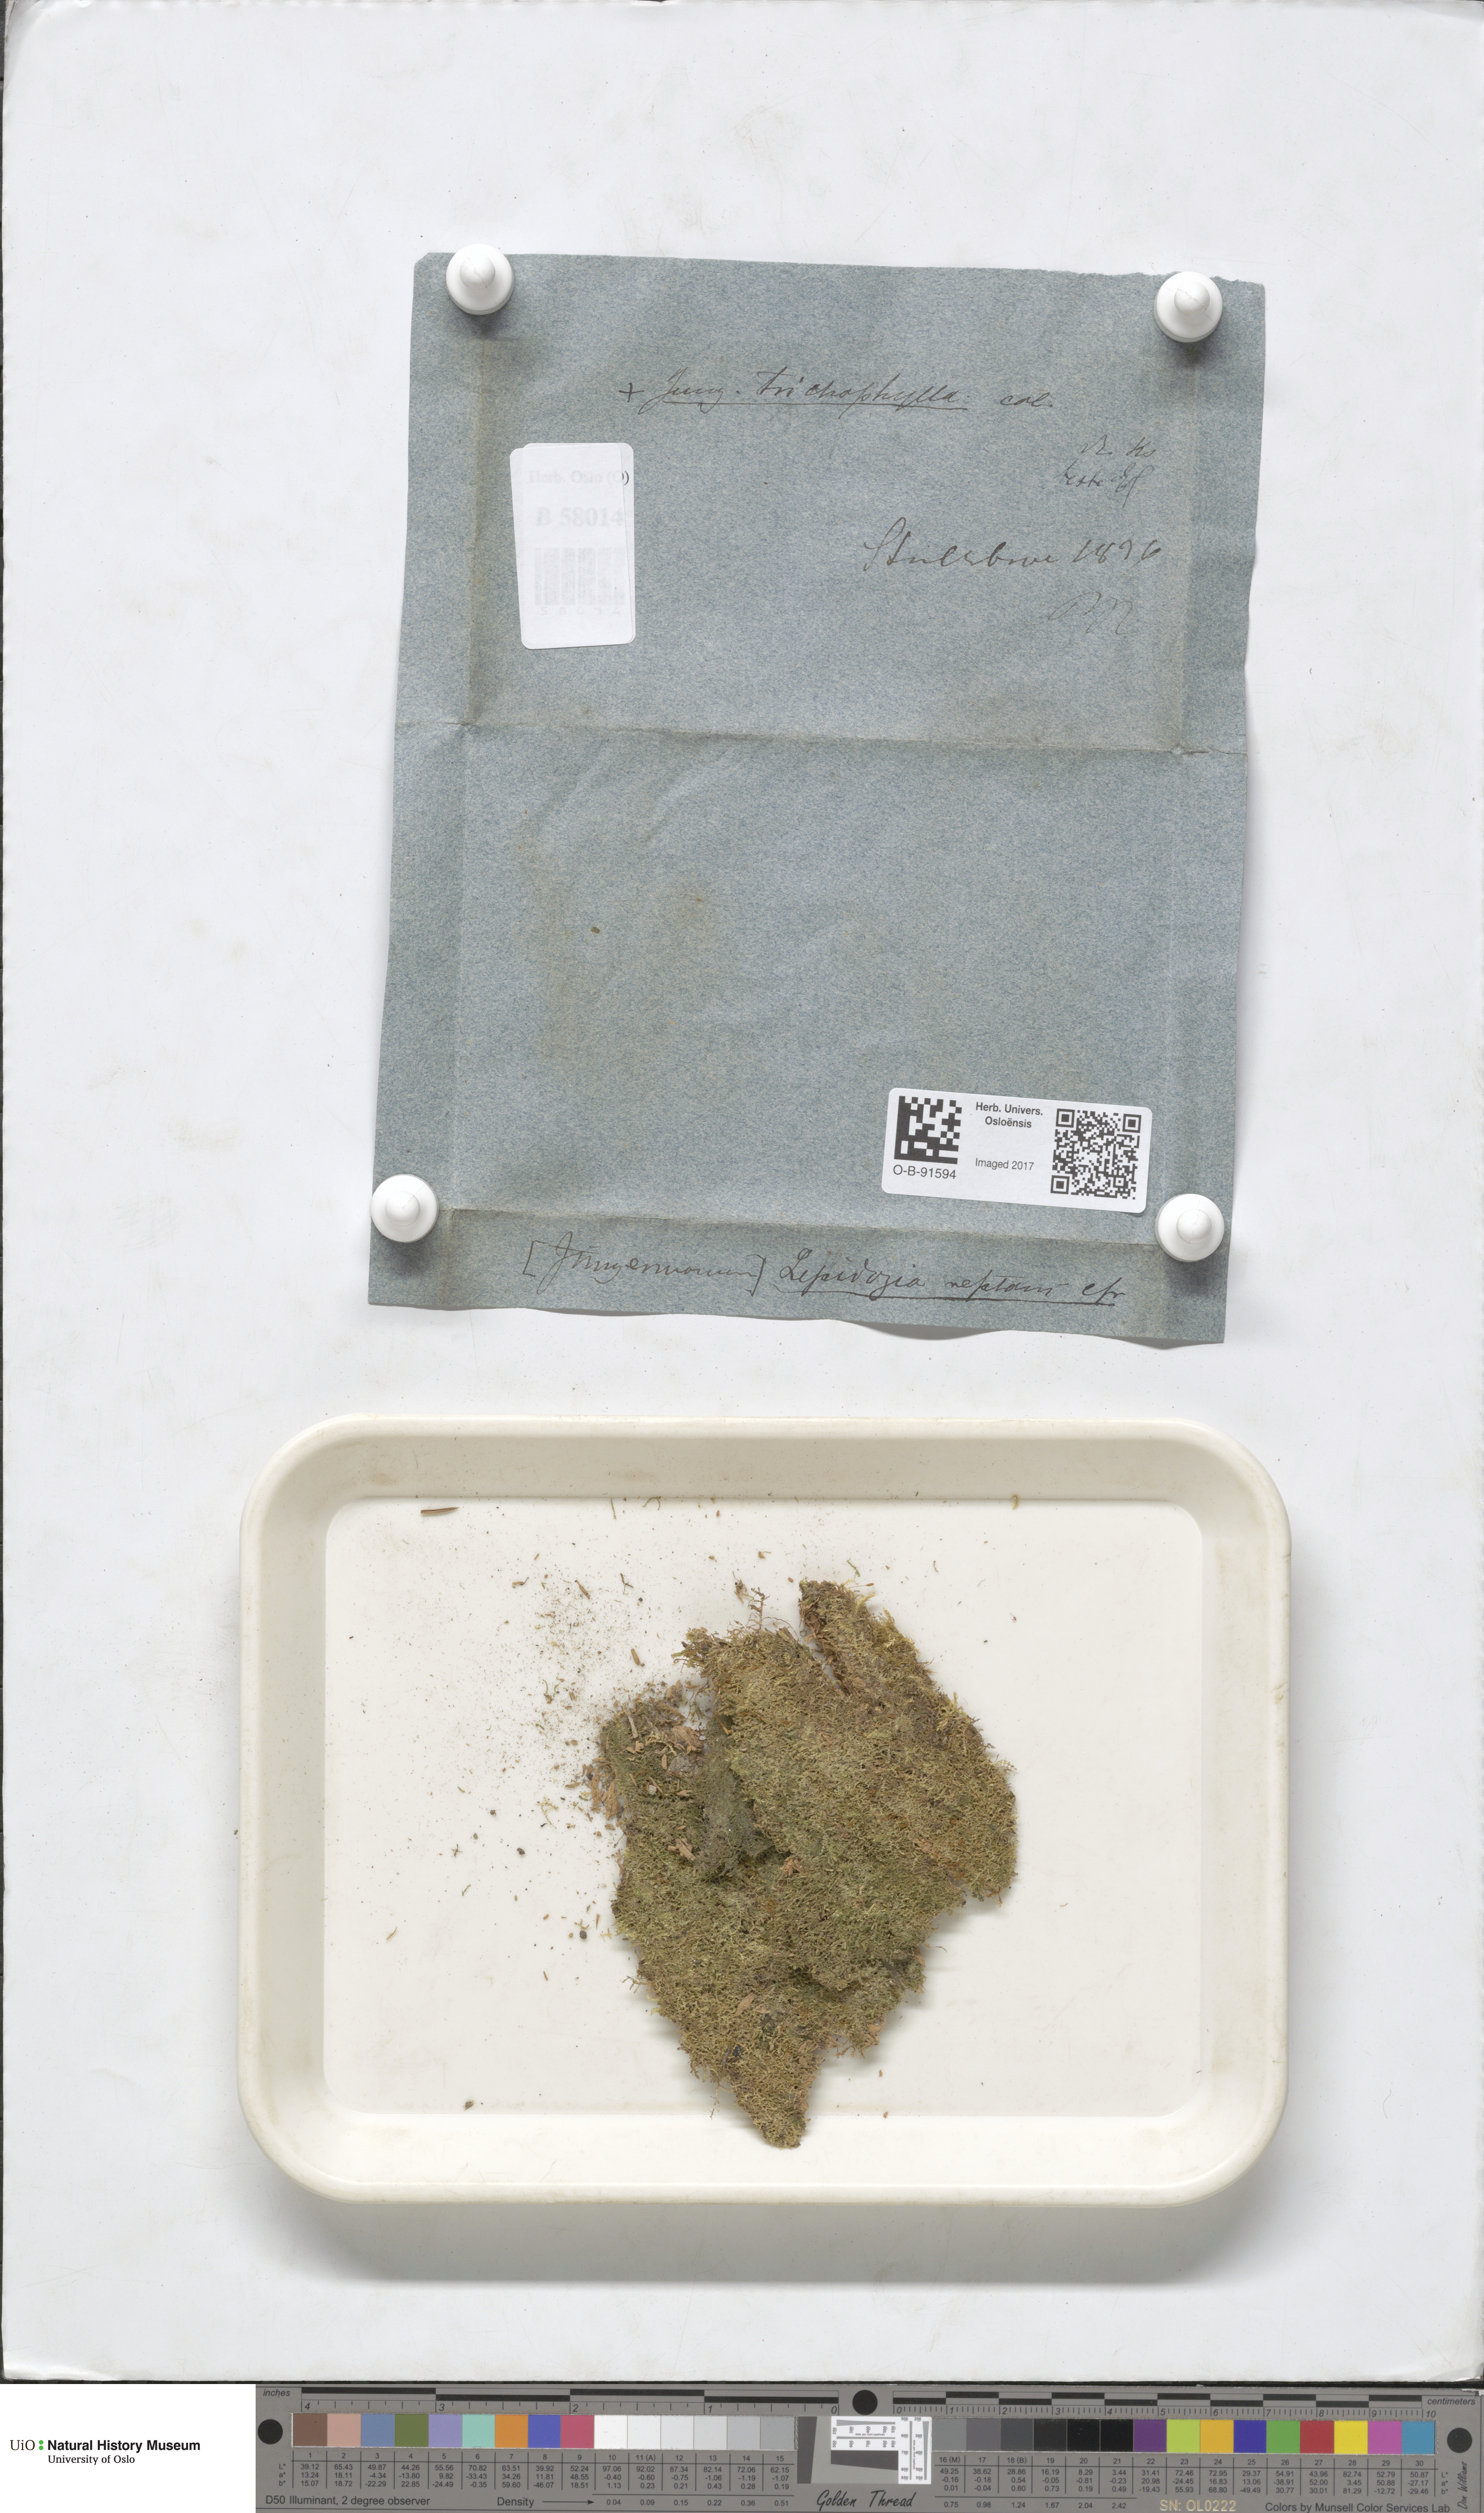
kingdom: Plantae
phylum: Marchantiophyta
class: Jungermanniopsida
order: Jungermanniales
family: Lepidoziaceae
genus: Lepidozia
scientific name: Lepidozia reptans
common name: Creeping fingerwort
